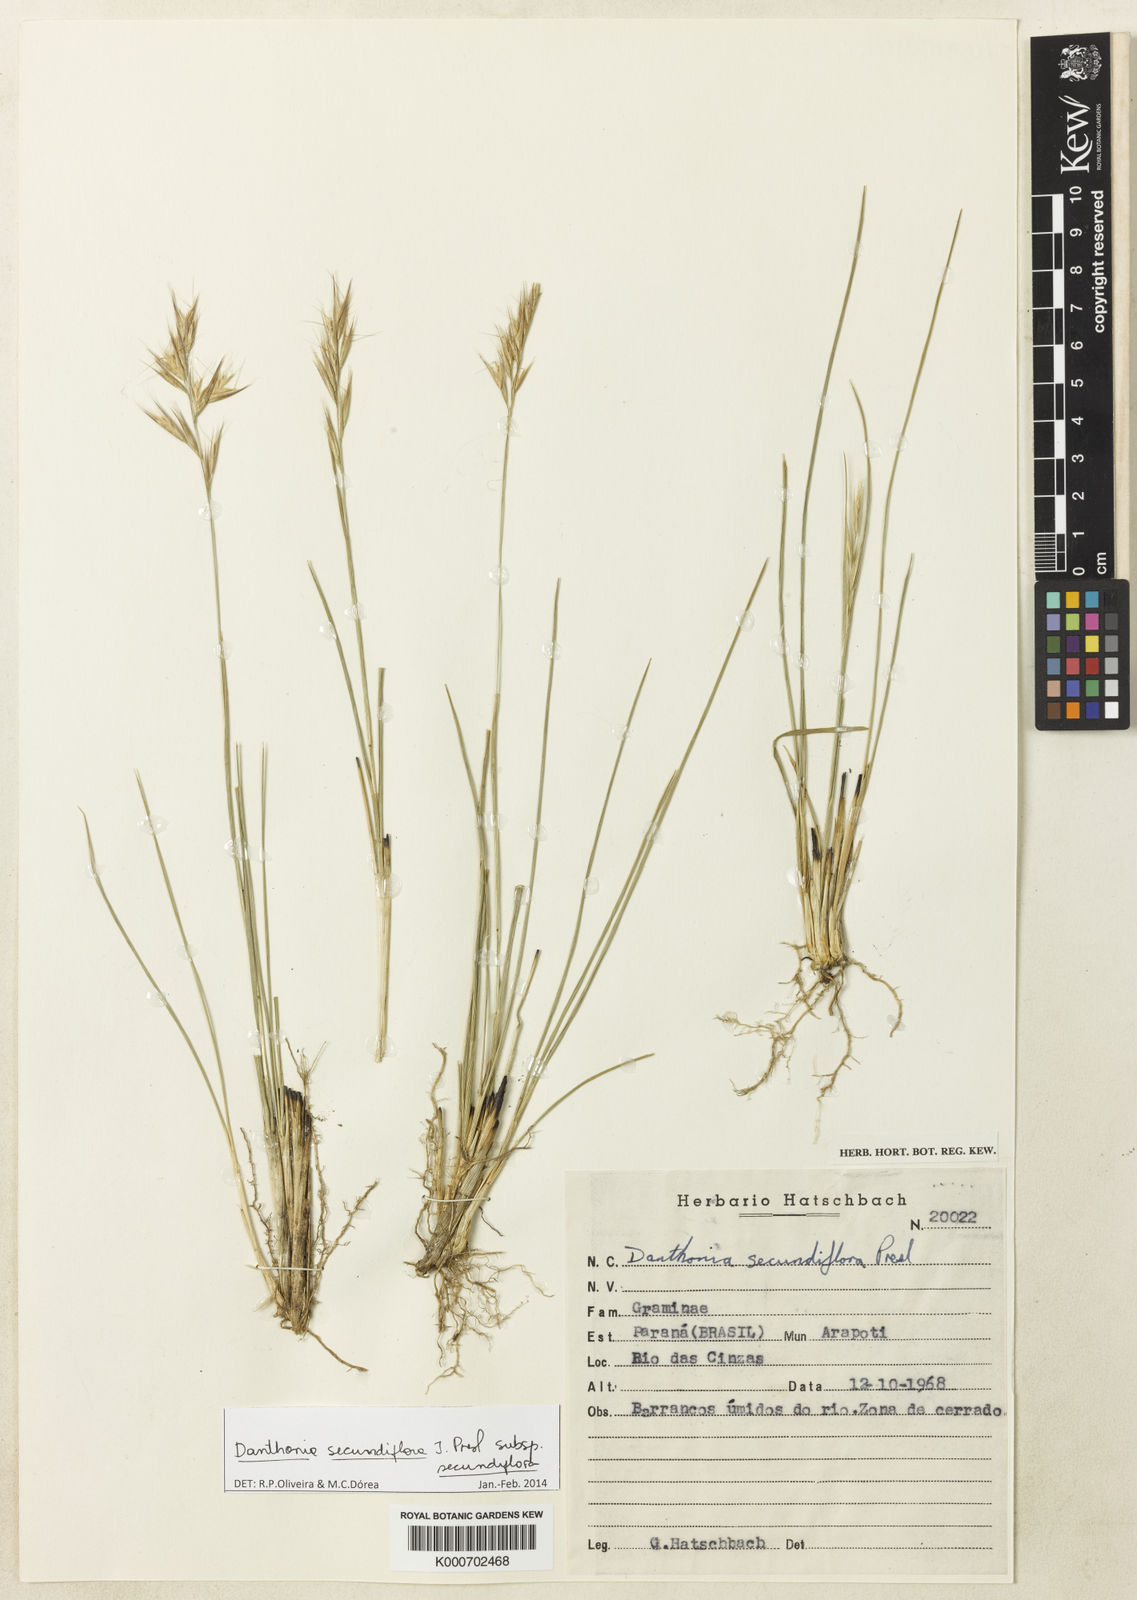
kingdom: Plantae
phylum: Tracheophyta
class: Liliopsida
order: Poales
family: Poaceae
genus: Danthonia
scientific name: Danthonia secundiflora
